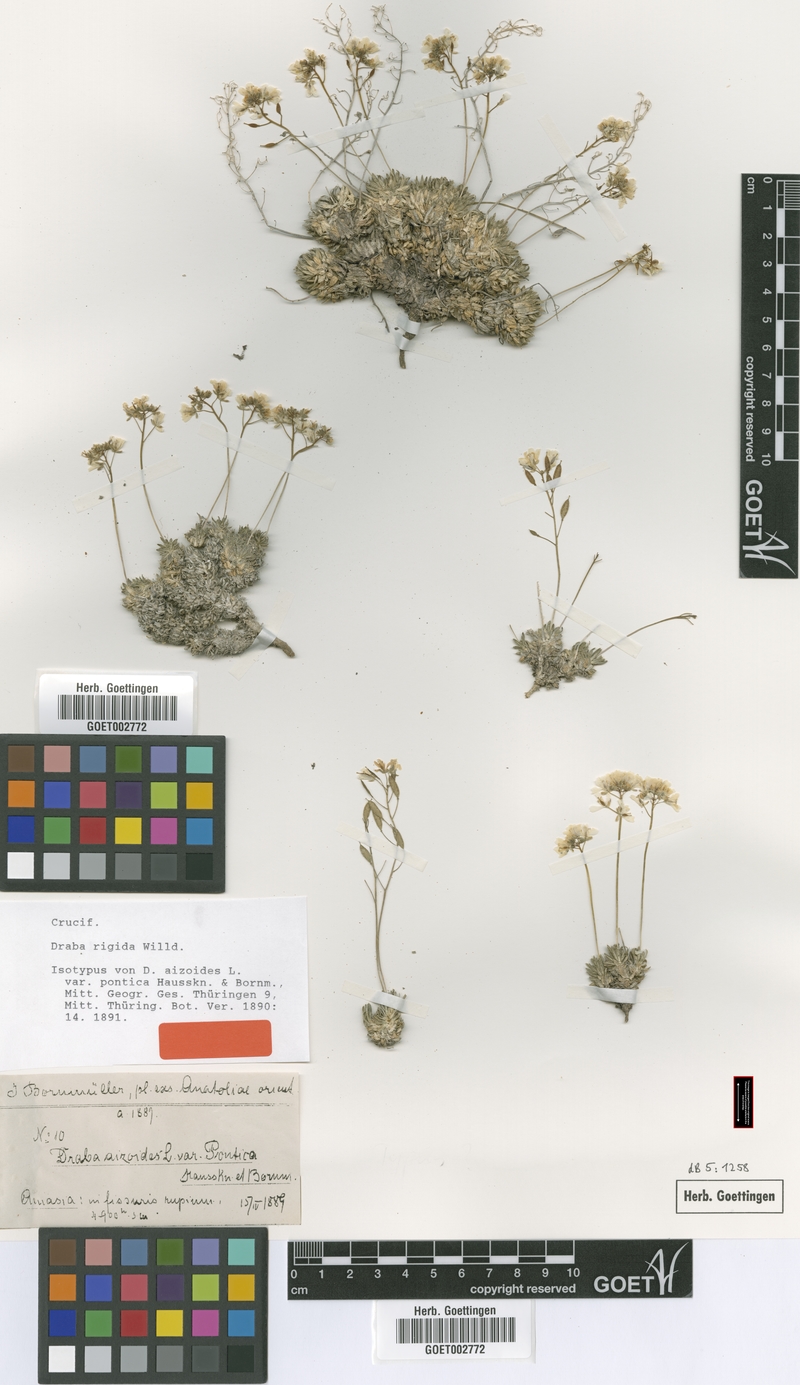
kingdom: Plantae
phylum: Tracheophyta
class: Magnoliopsida
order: Brassicales
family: Brassicaceae
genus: Draba
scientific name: Draba rigida
